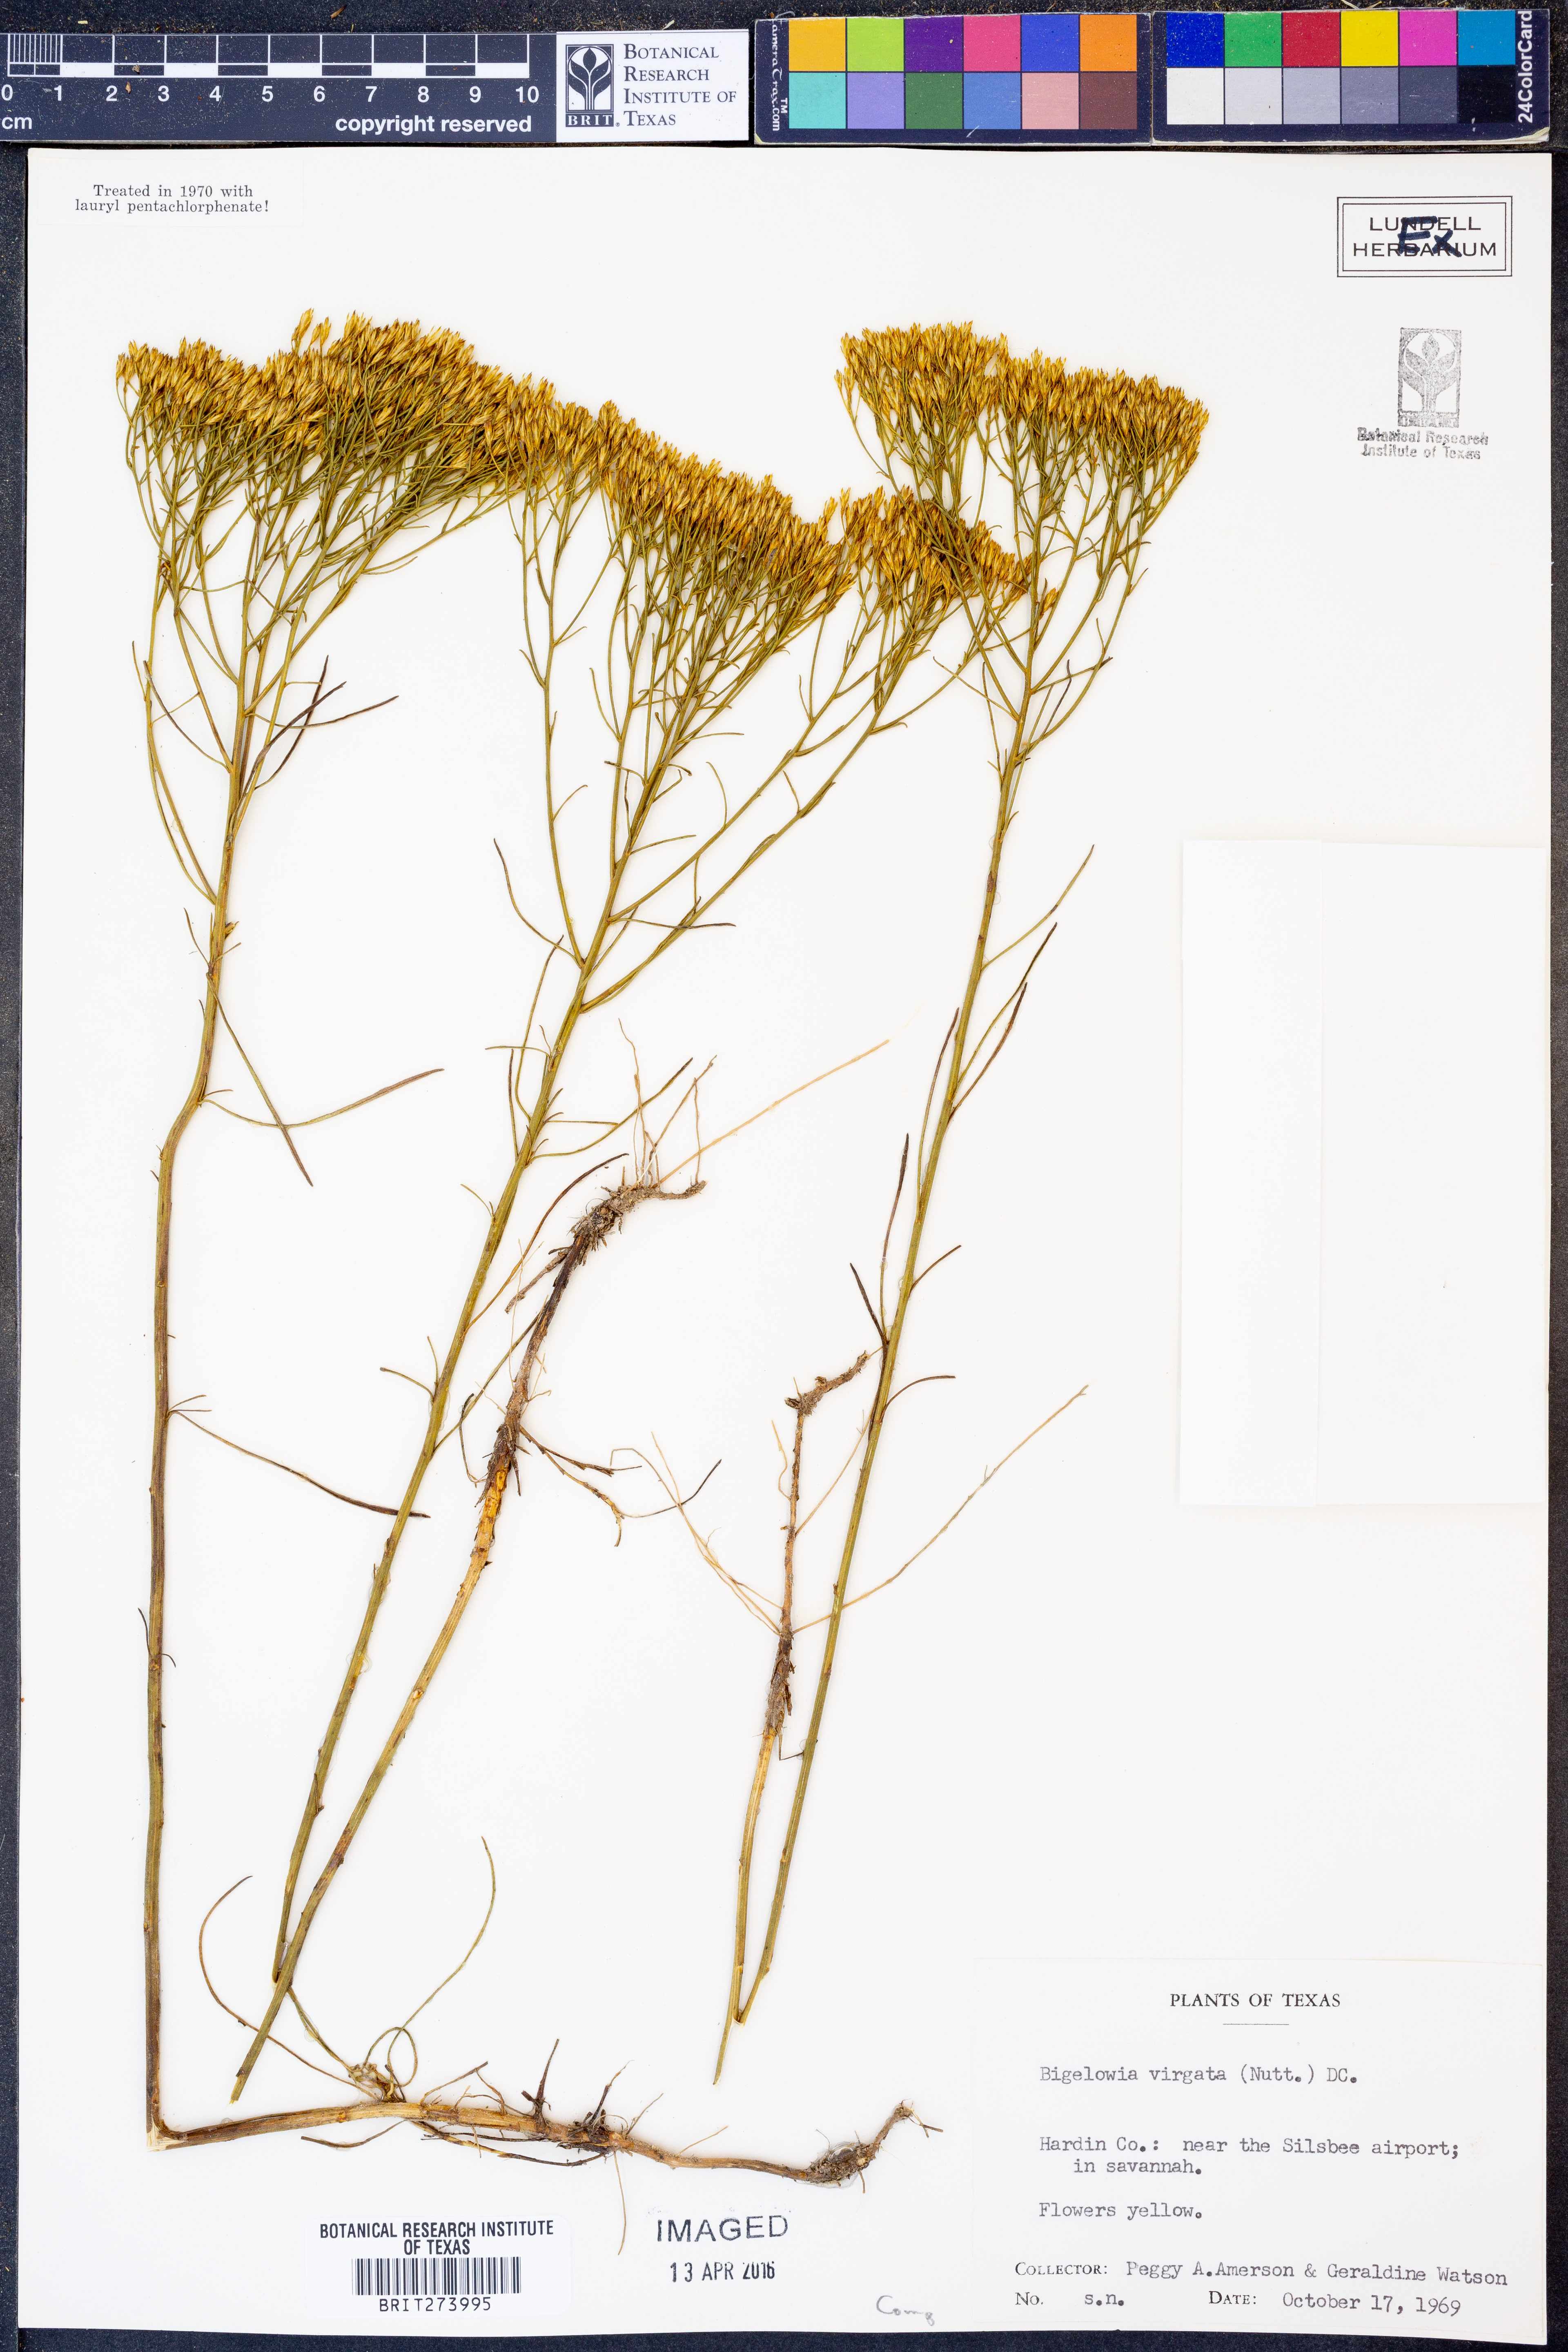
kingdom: Plantae
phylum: Tracheophyta
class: Magnoliopsida
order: Asterales
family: Asteraceae
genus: Bigelowia
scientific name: Bigelowia nudata
